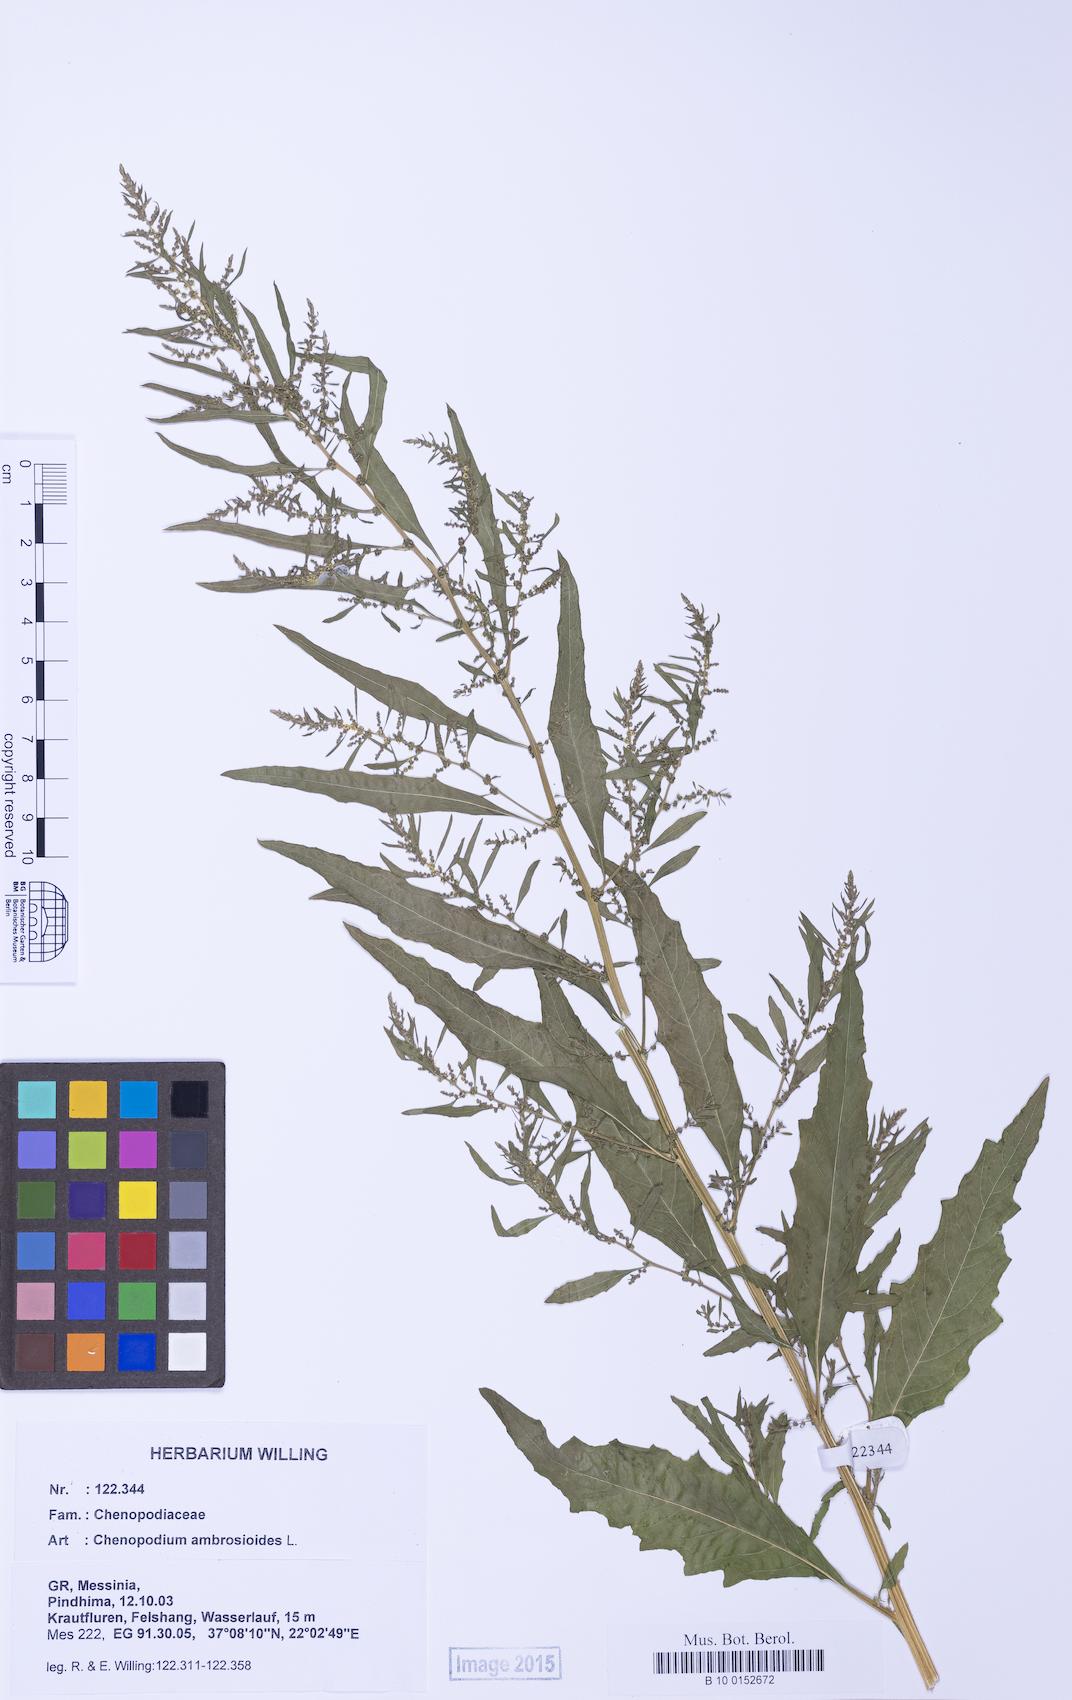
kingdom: Plantae
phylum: Tracheophyta
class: Magnoliopsida
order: Caryophyllales
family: Amaranthaceae
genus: Dysphania
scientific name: Dysphania ambrosioides
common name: Wormseed
